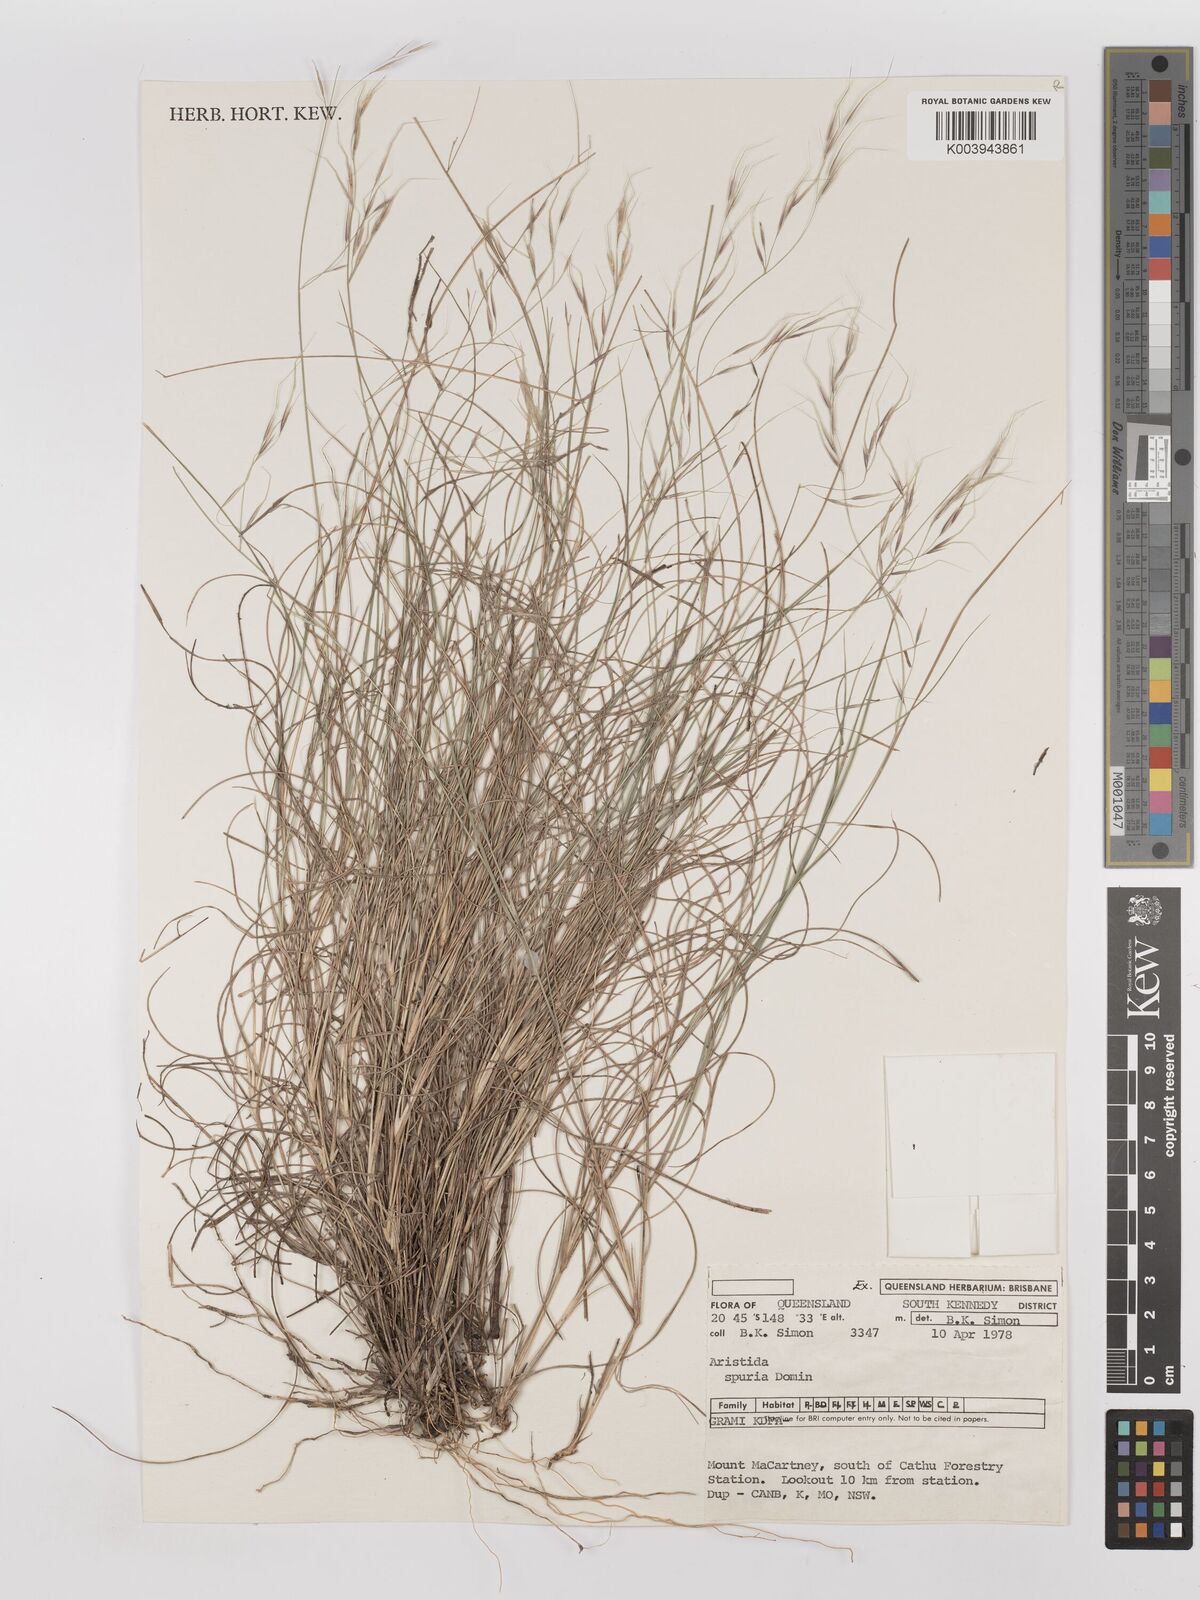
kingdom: Plantae
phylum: Tracheophyta
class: Liliopsida
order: Poales
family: Poaceae
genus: Aristida
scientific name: Aristida spuria
